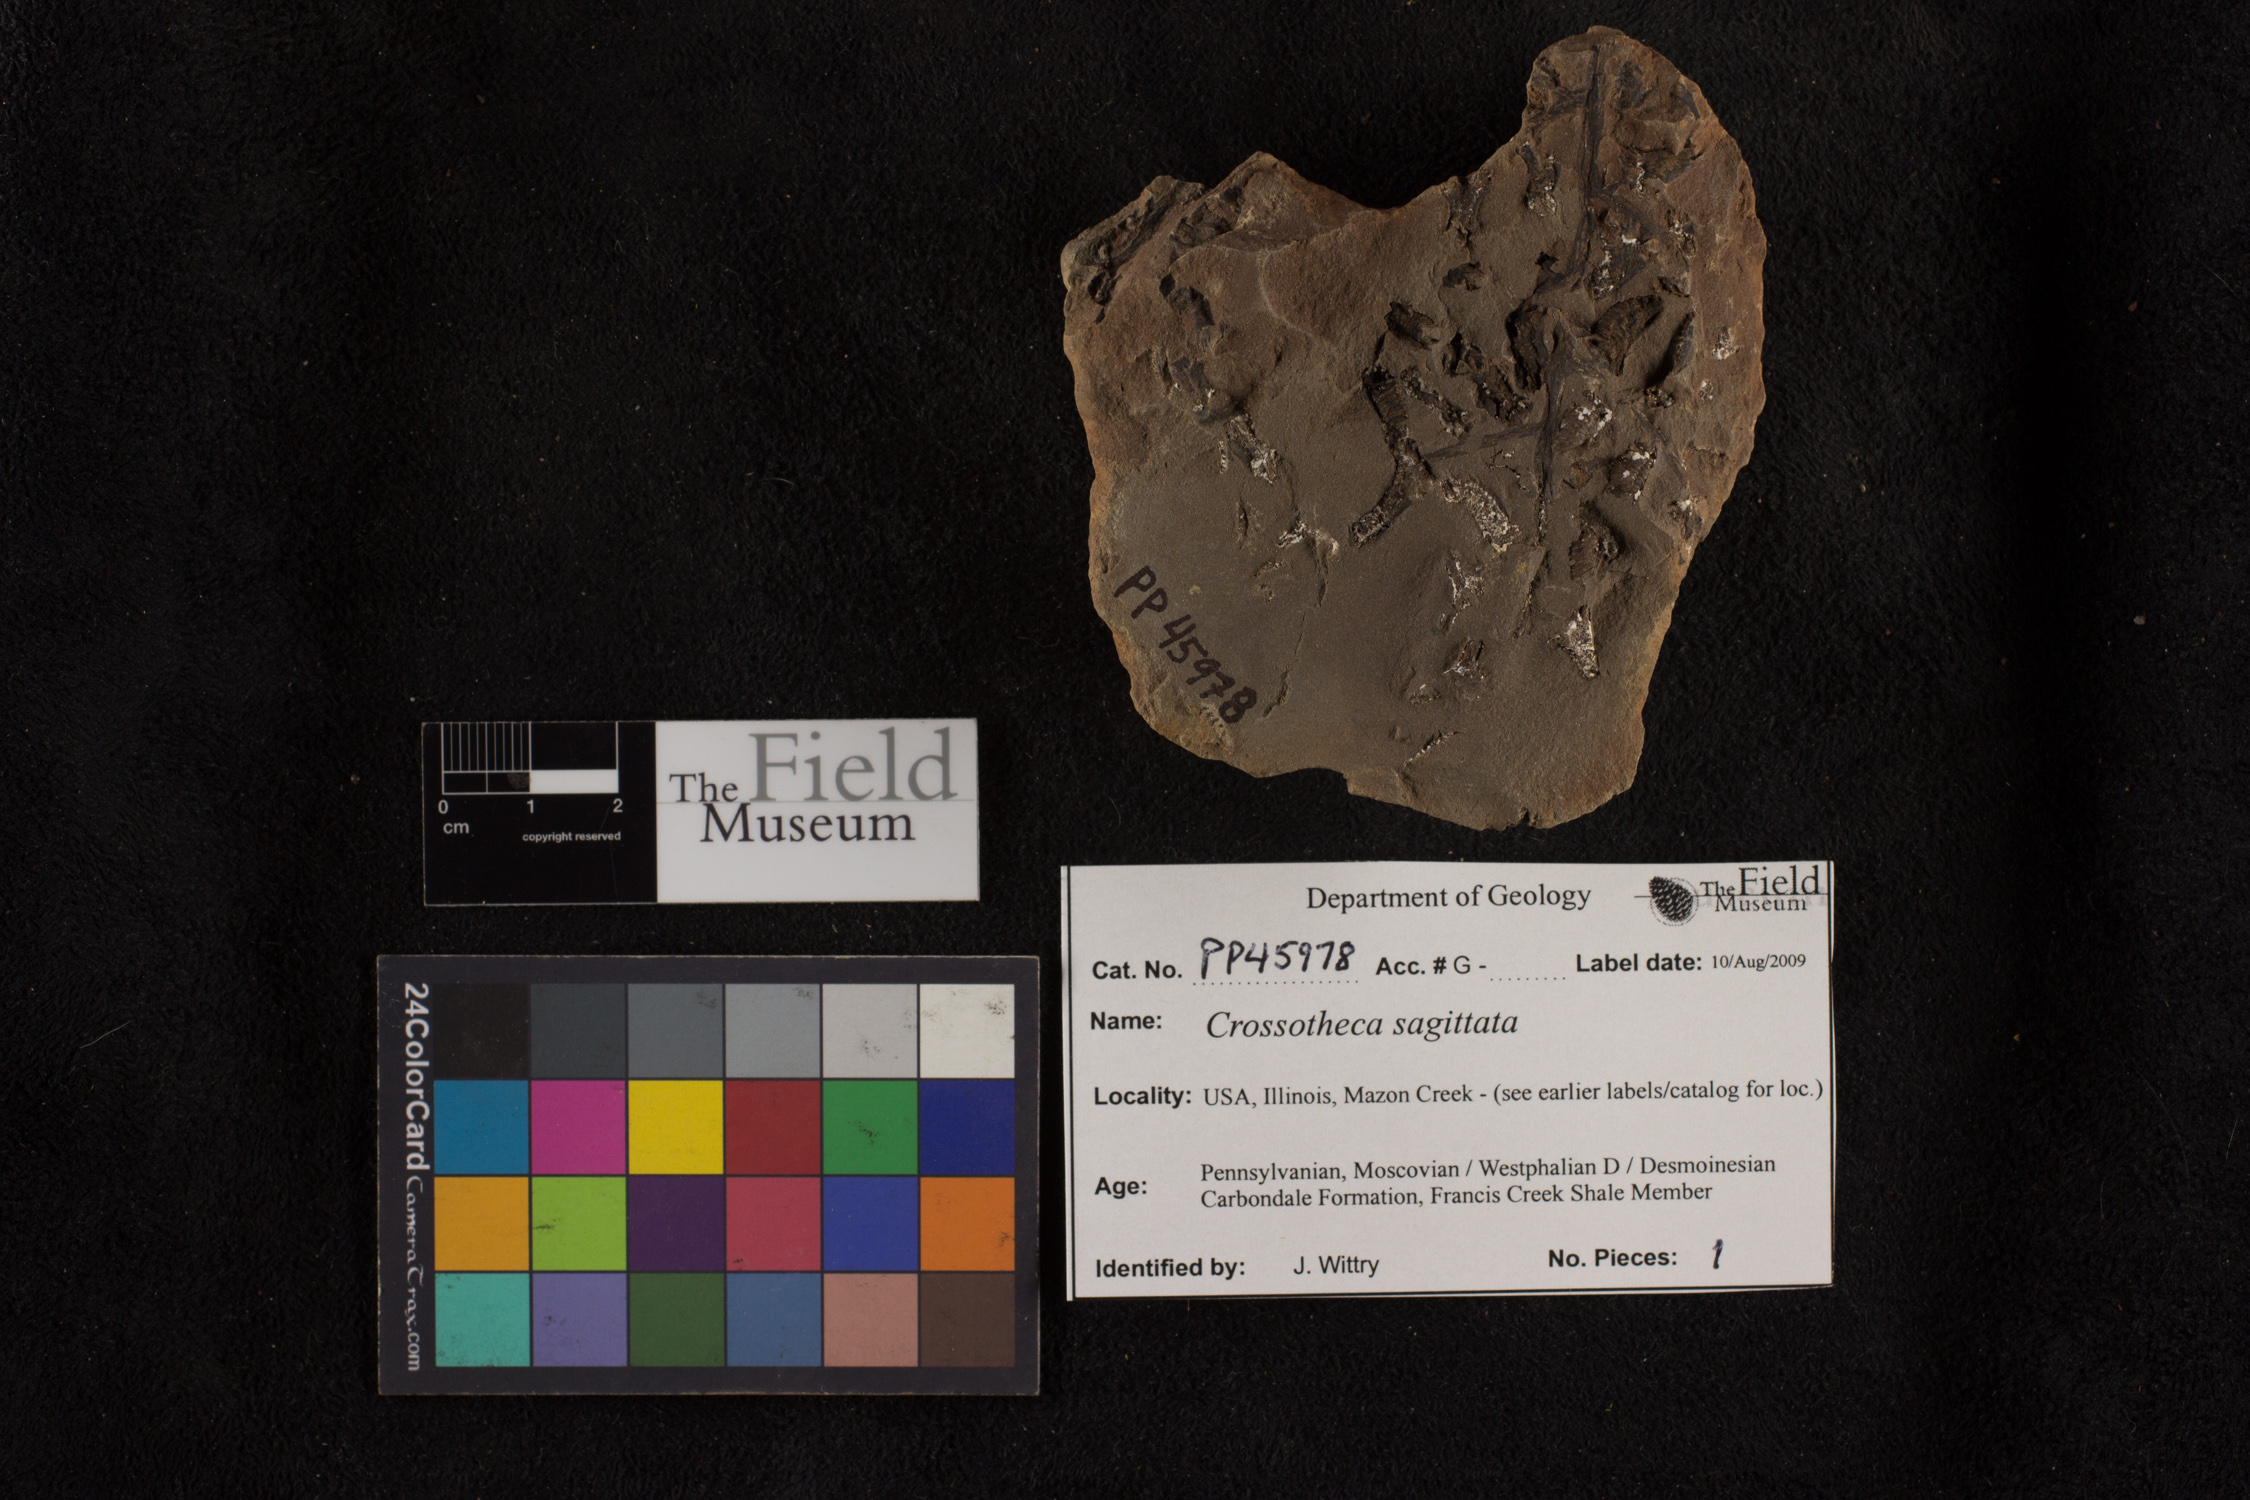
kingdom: Plantae
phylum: Tracheophyta
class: Polypodiopsida
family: Stauropteridaceae
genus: Crossotheca
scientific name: Crossotheca
